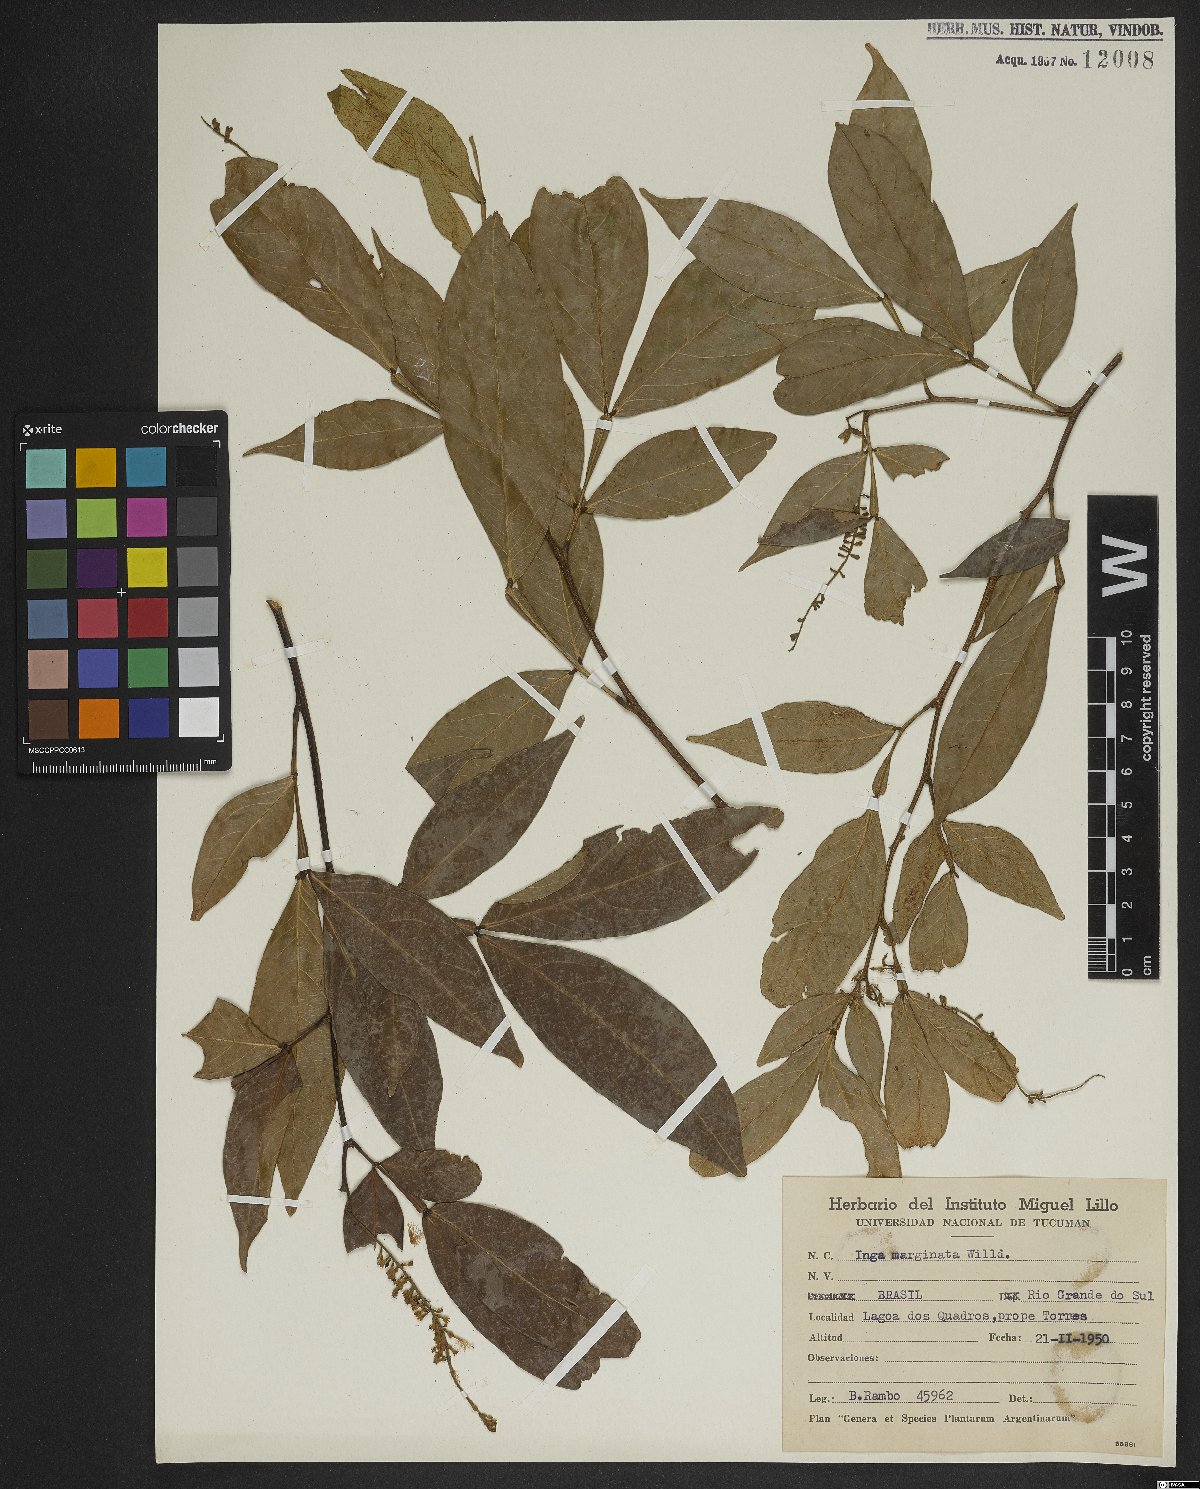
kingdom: Plantae
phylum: Tracheophyta
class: Magnoliopsida
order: Fabales
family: Fabaceae
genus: Inga
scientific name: Inga marginata
